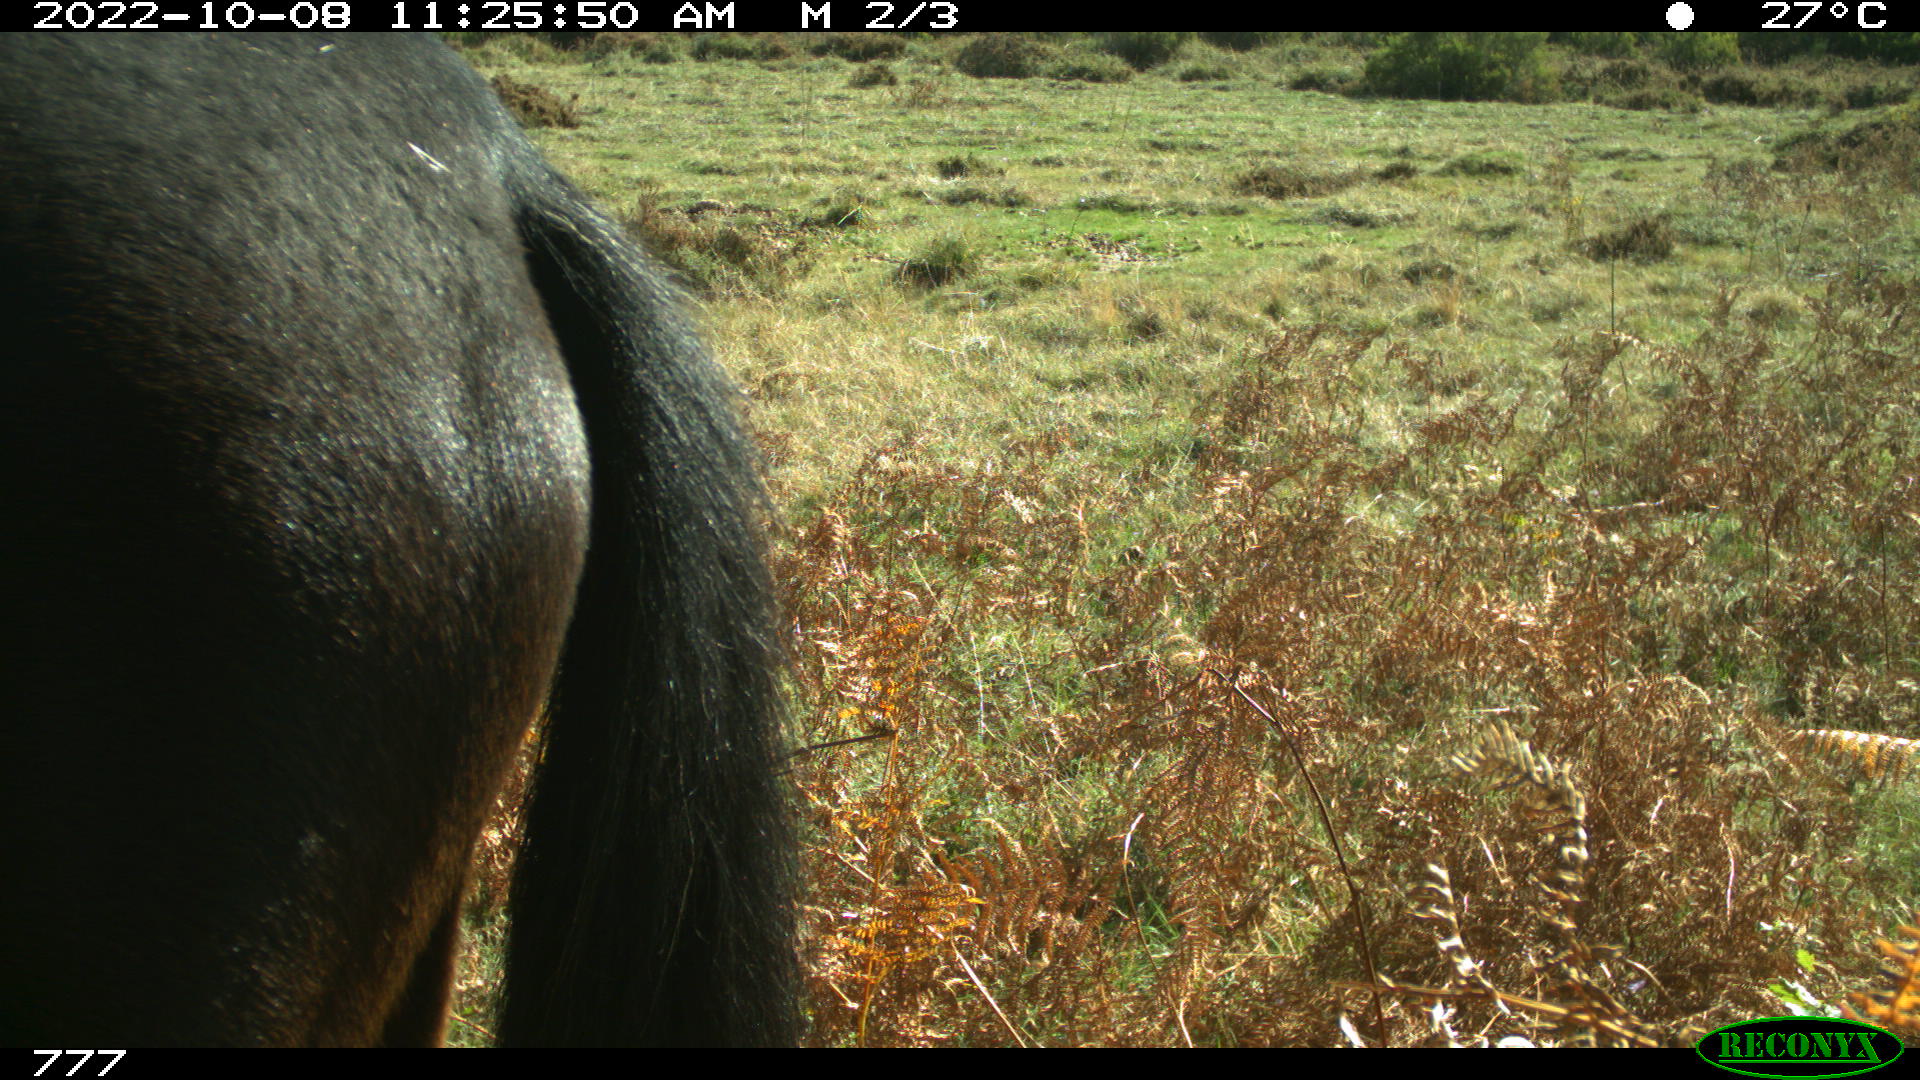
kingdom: Animalia
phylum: Chordata
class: Mammalia
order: Perissodactyla
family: Equidae
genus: Equus
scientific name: Equus caballus
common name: Horse
